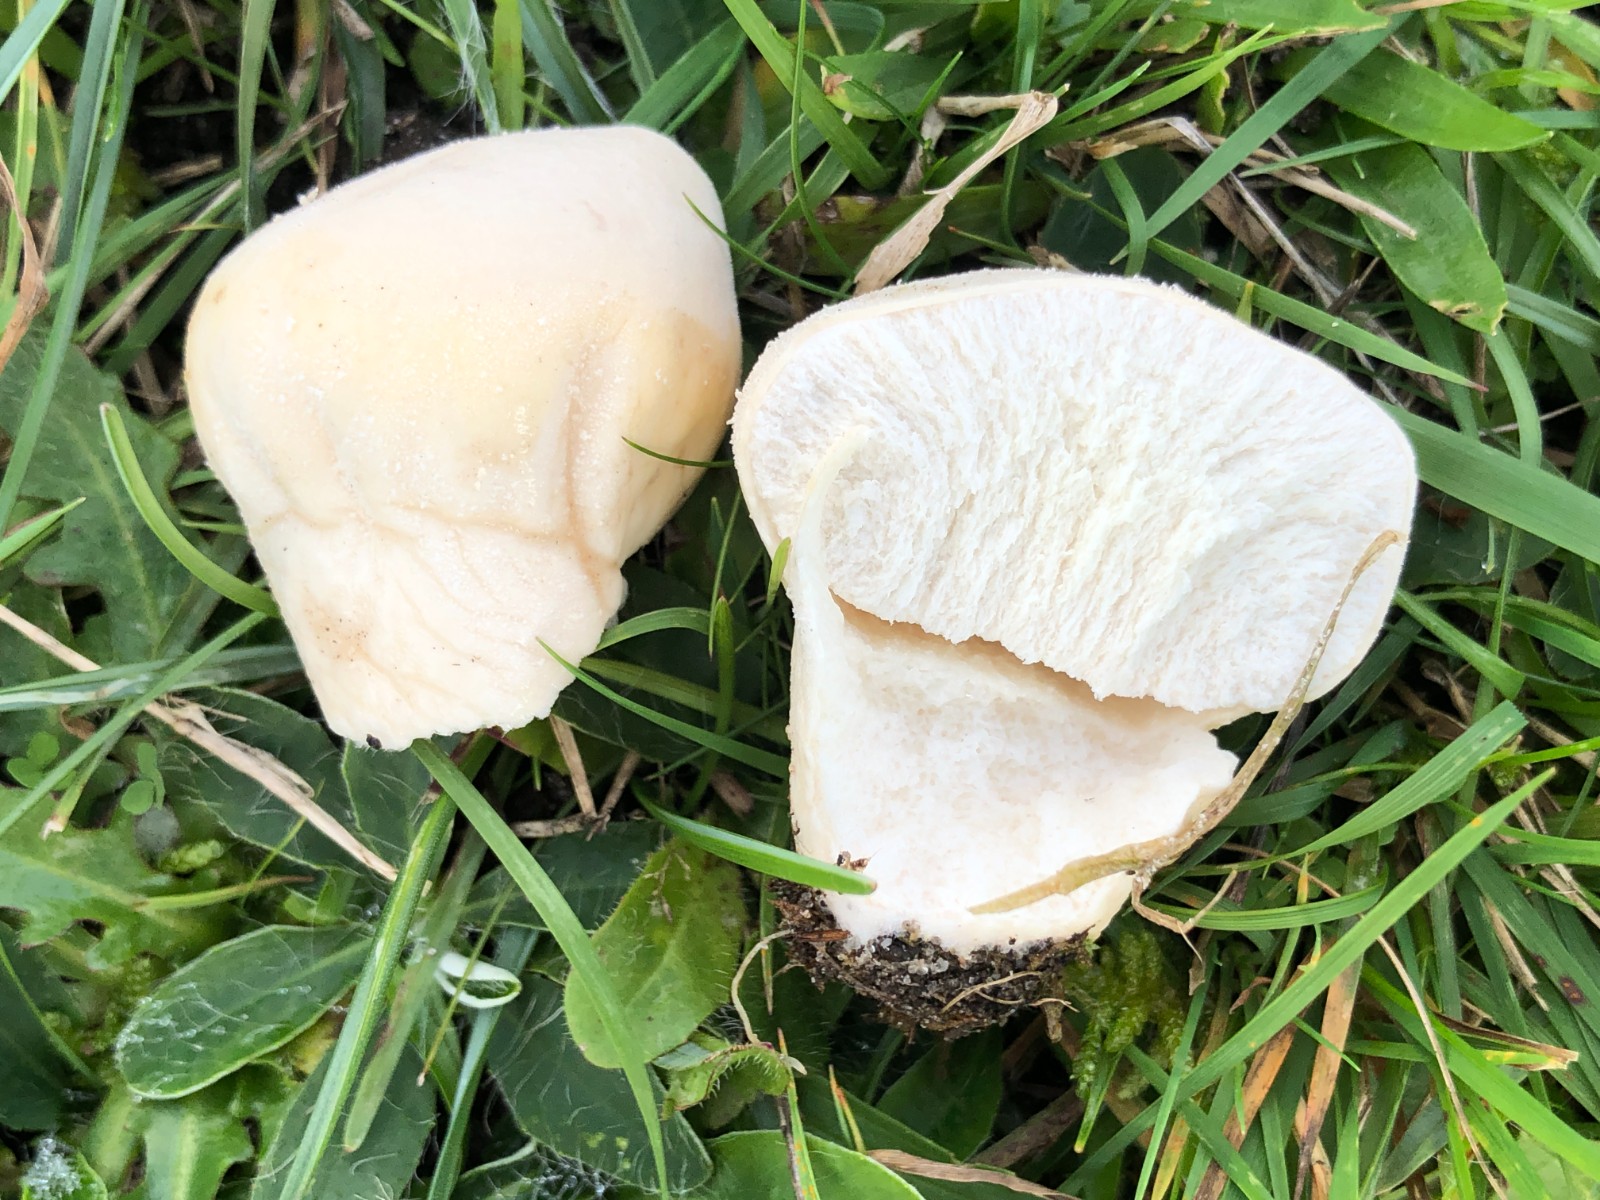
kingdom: Fungi
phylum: Basidiomycota
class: Agaricomycetes
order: Agaricales
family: Lycoperdaceae
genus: Lycoperdon
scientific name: Lycoperdon pratense
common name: flad støvbold
